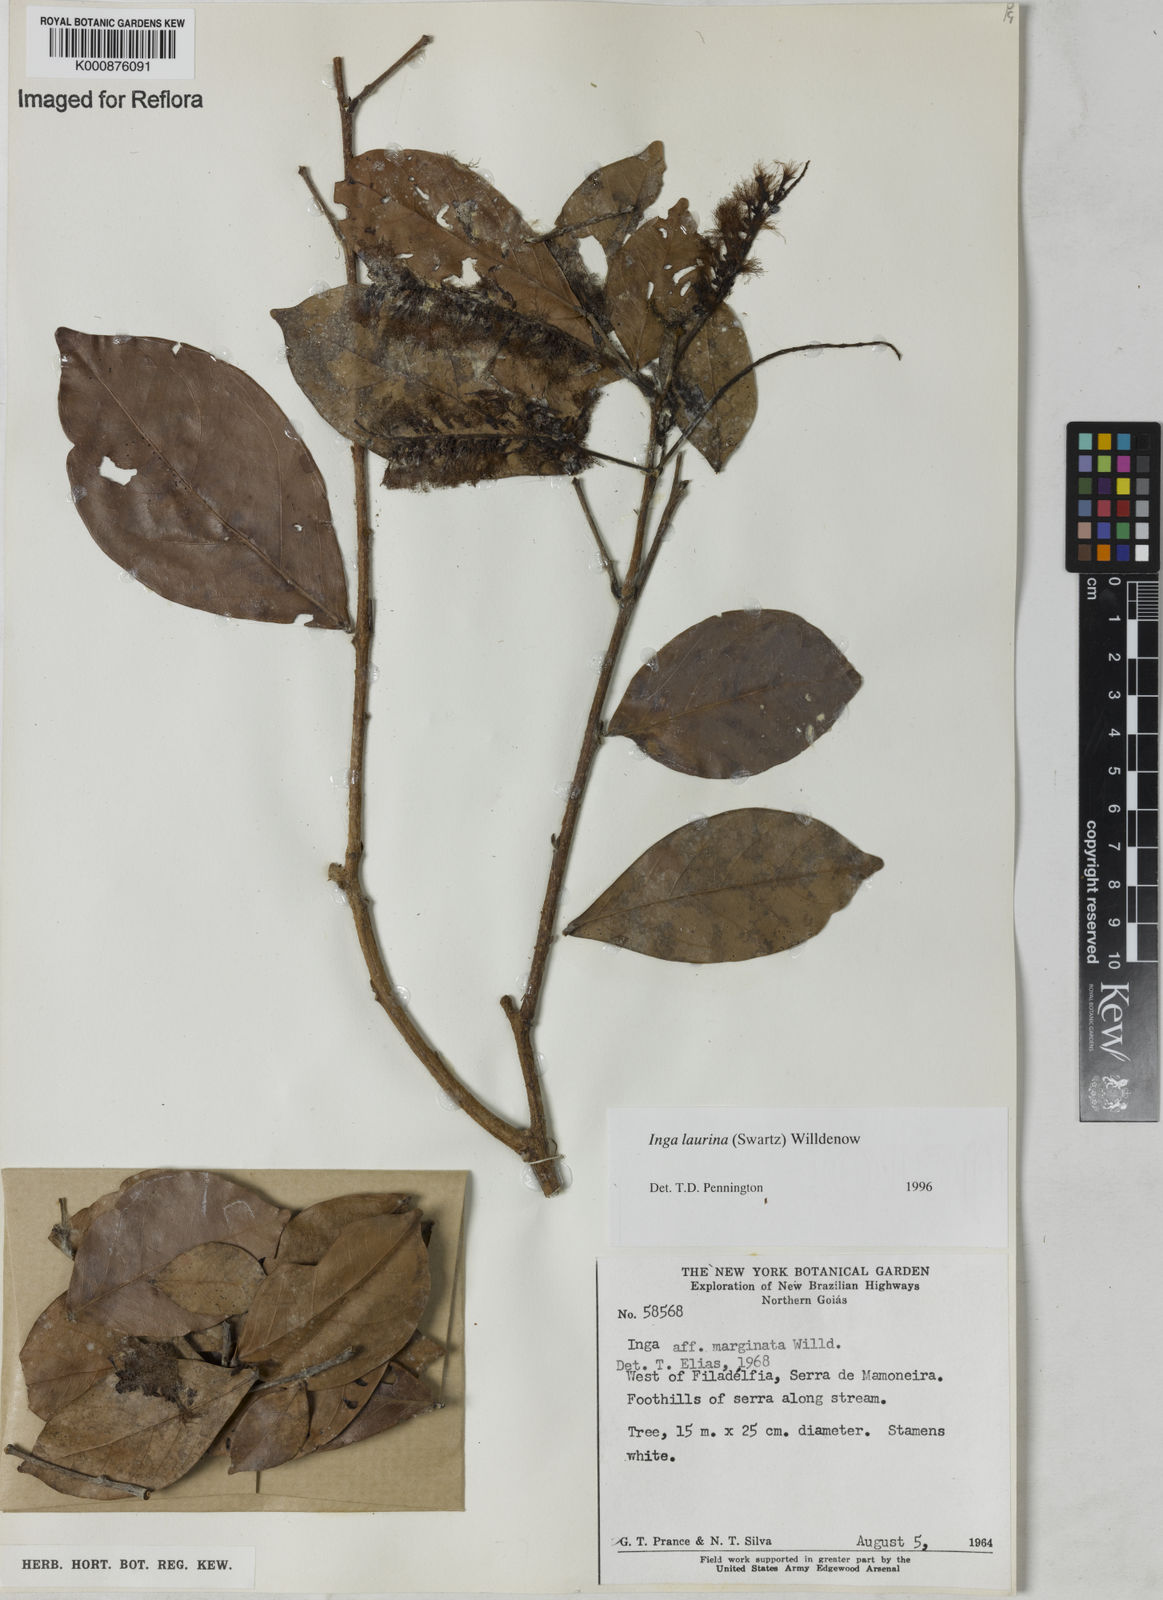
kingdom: Plantae
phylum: Tracheophyta
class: Magnoliopsida
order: Fabales
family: Fabaceae
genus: Inga
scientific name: Inga laurina
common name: Red wood
